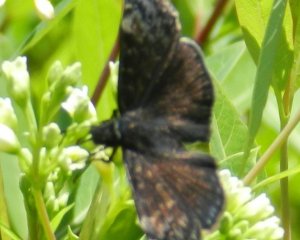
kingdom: Animalia
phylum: Arthropoda
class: Insecta
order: Lepidoptera
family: Hesperiidae
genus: Gesta
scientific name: Gesta
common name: Wild Indigo Duskywing
